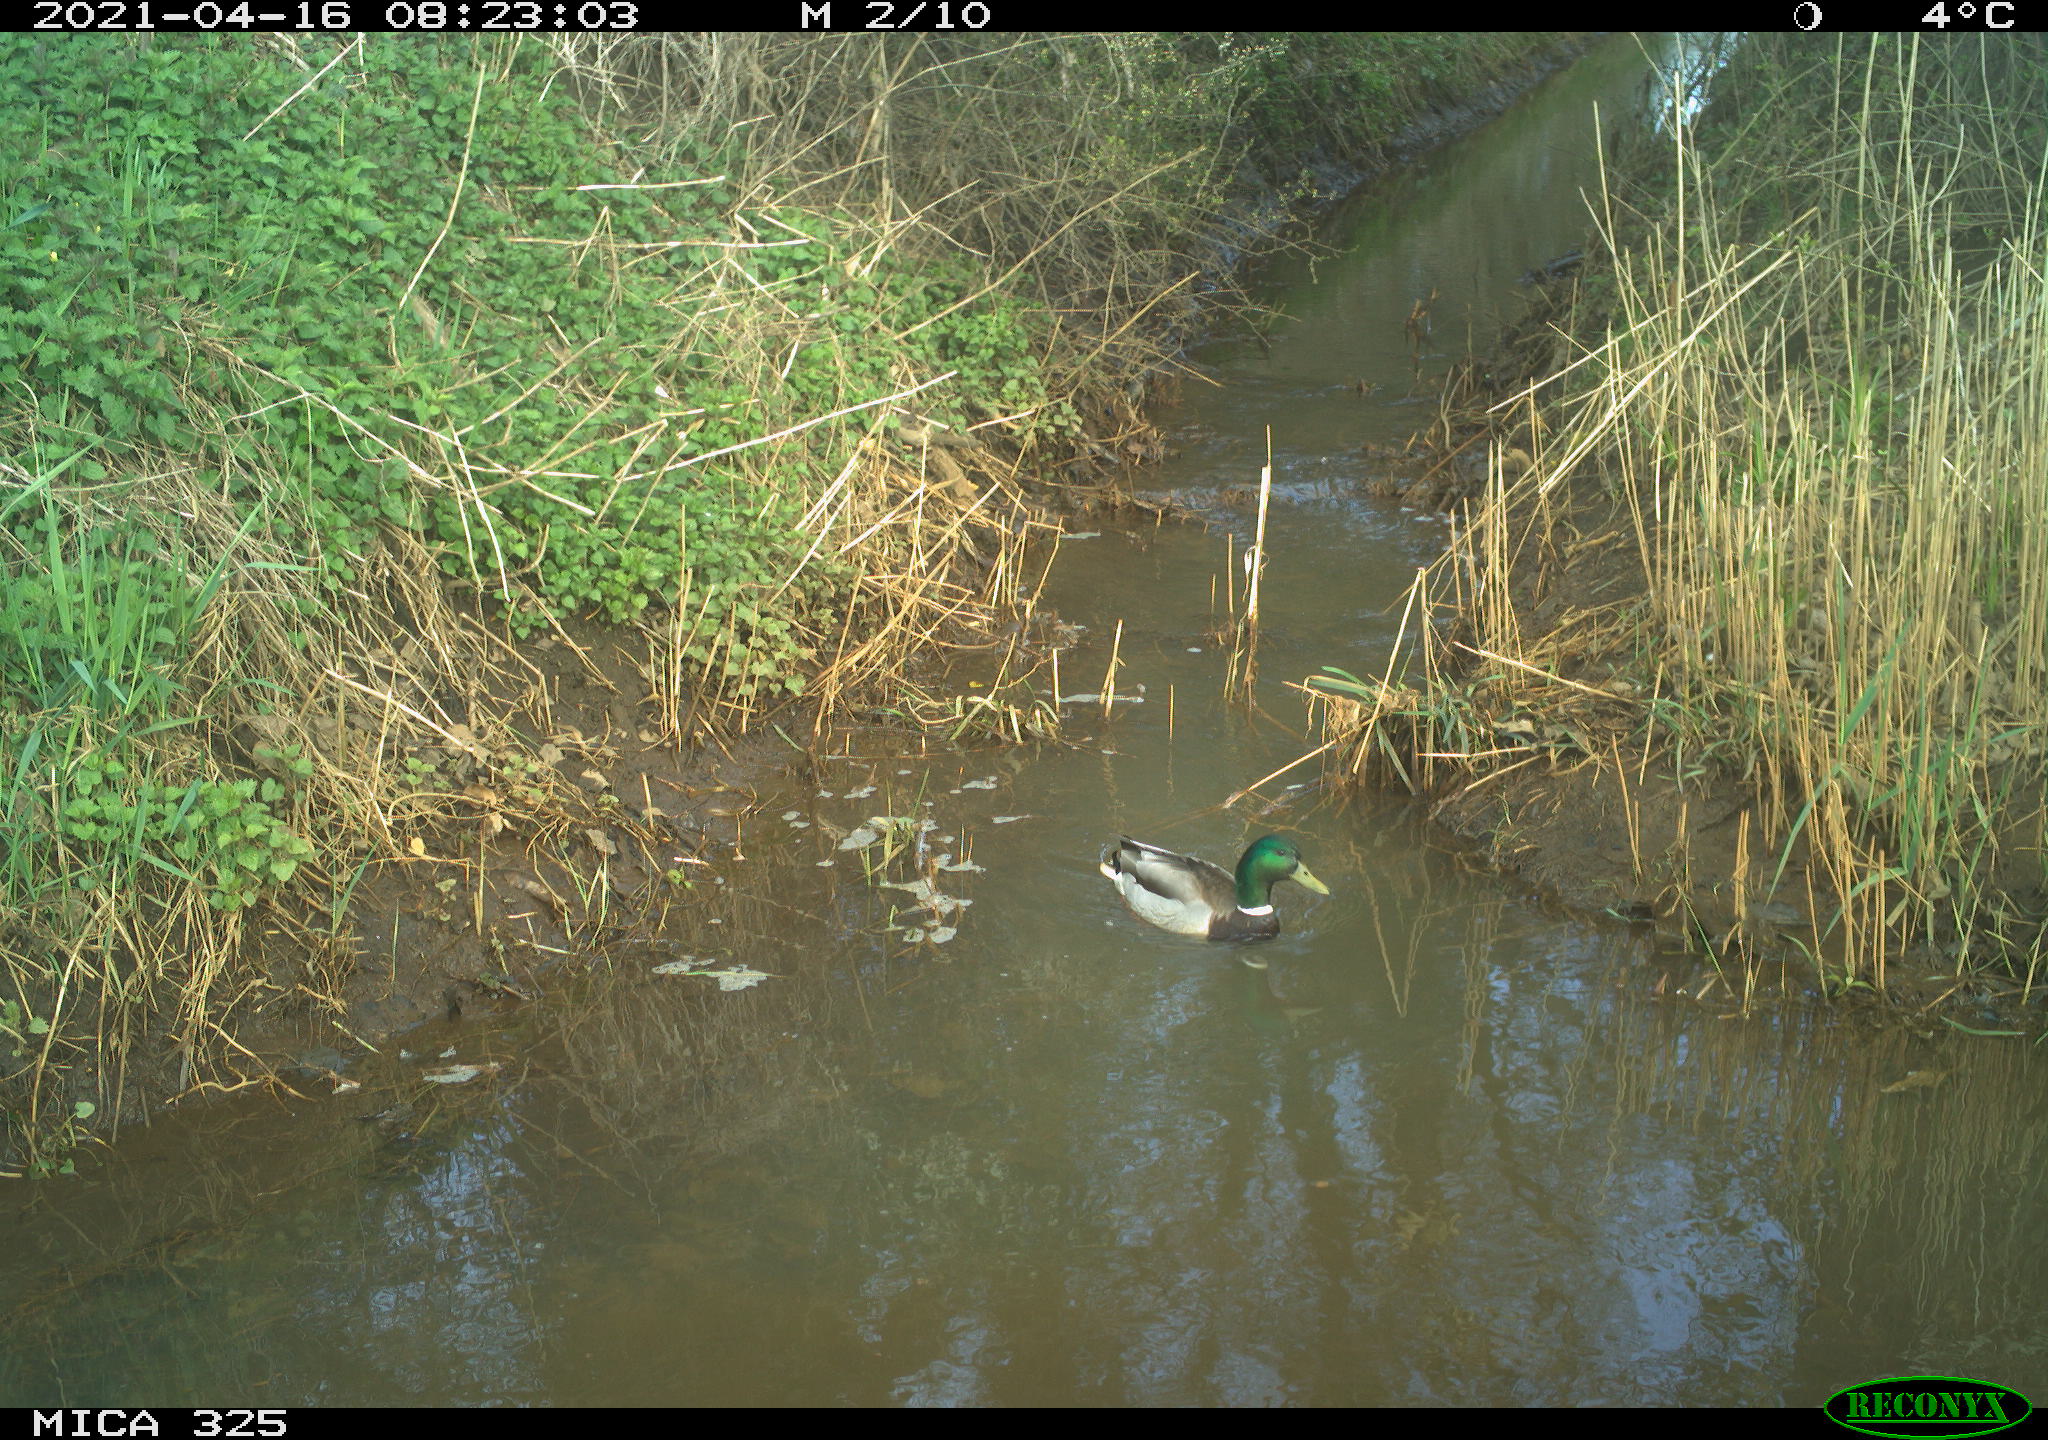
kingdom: Animalia
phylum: Chordata
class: Aves
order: Anseriformes
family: Anatidae
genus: Anas
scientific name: Anas platyrhynchos
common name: Mallard
